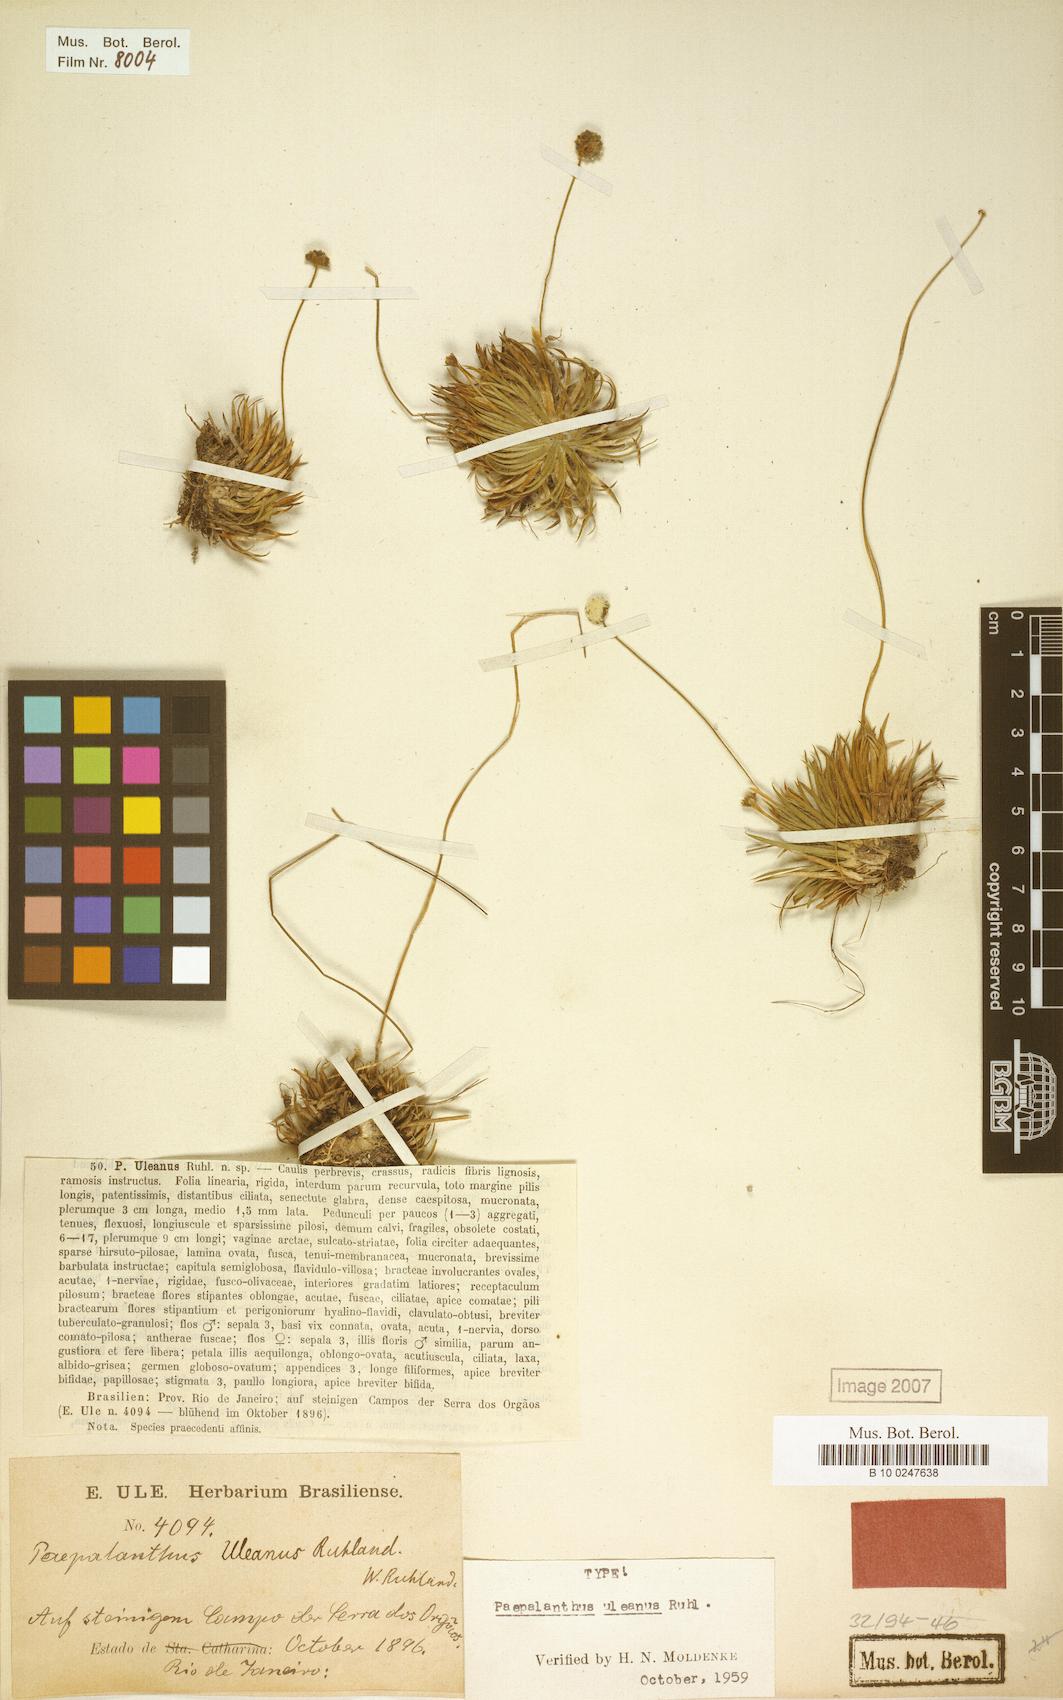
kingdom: Plantae
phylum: Tracheophyta
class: Liliopsida
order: Poales
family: Eriocaulaceae
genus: Paepalanthus
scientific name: Paepalanthus uleanus
